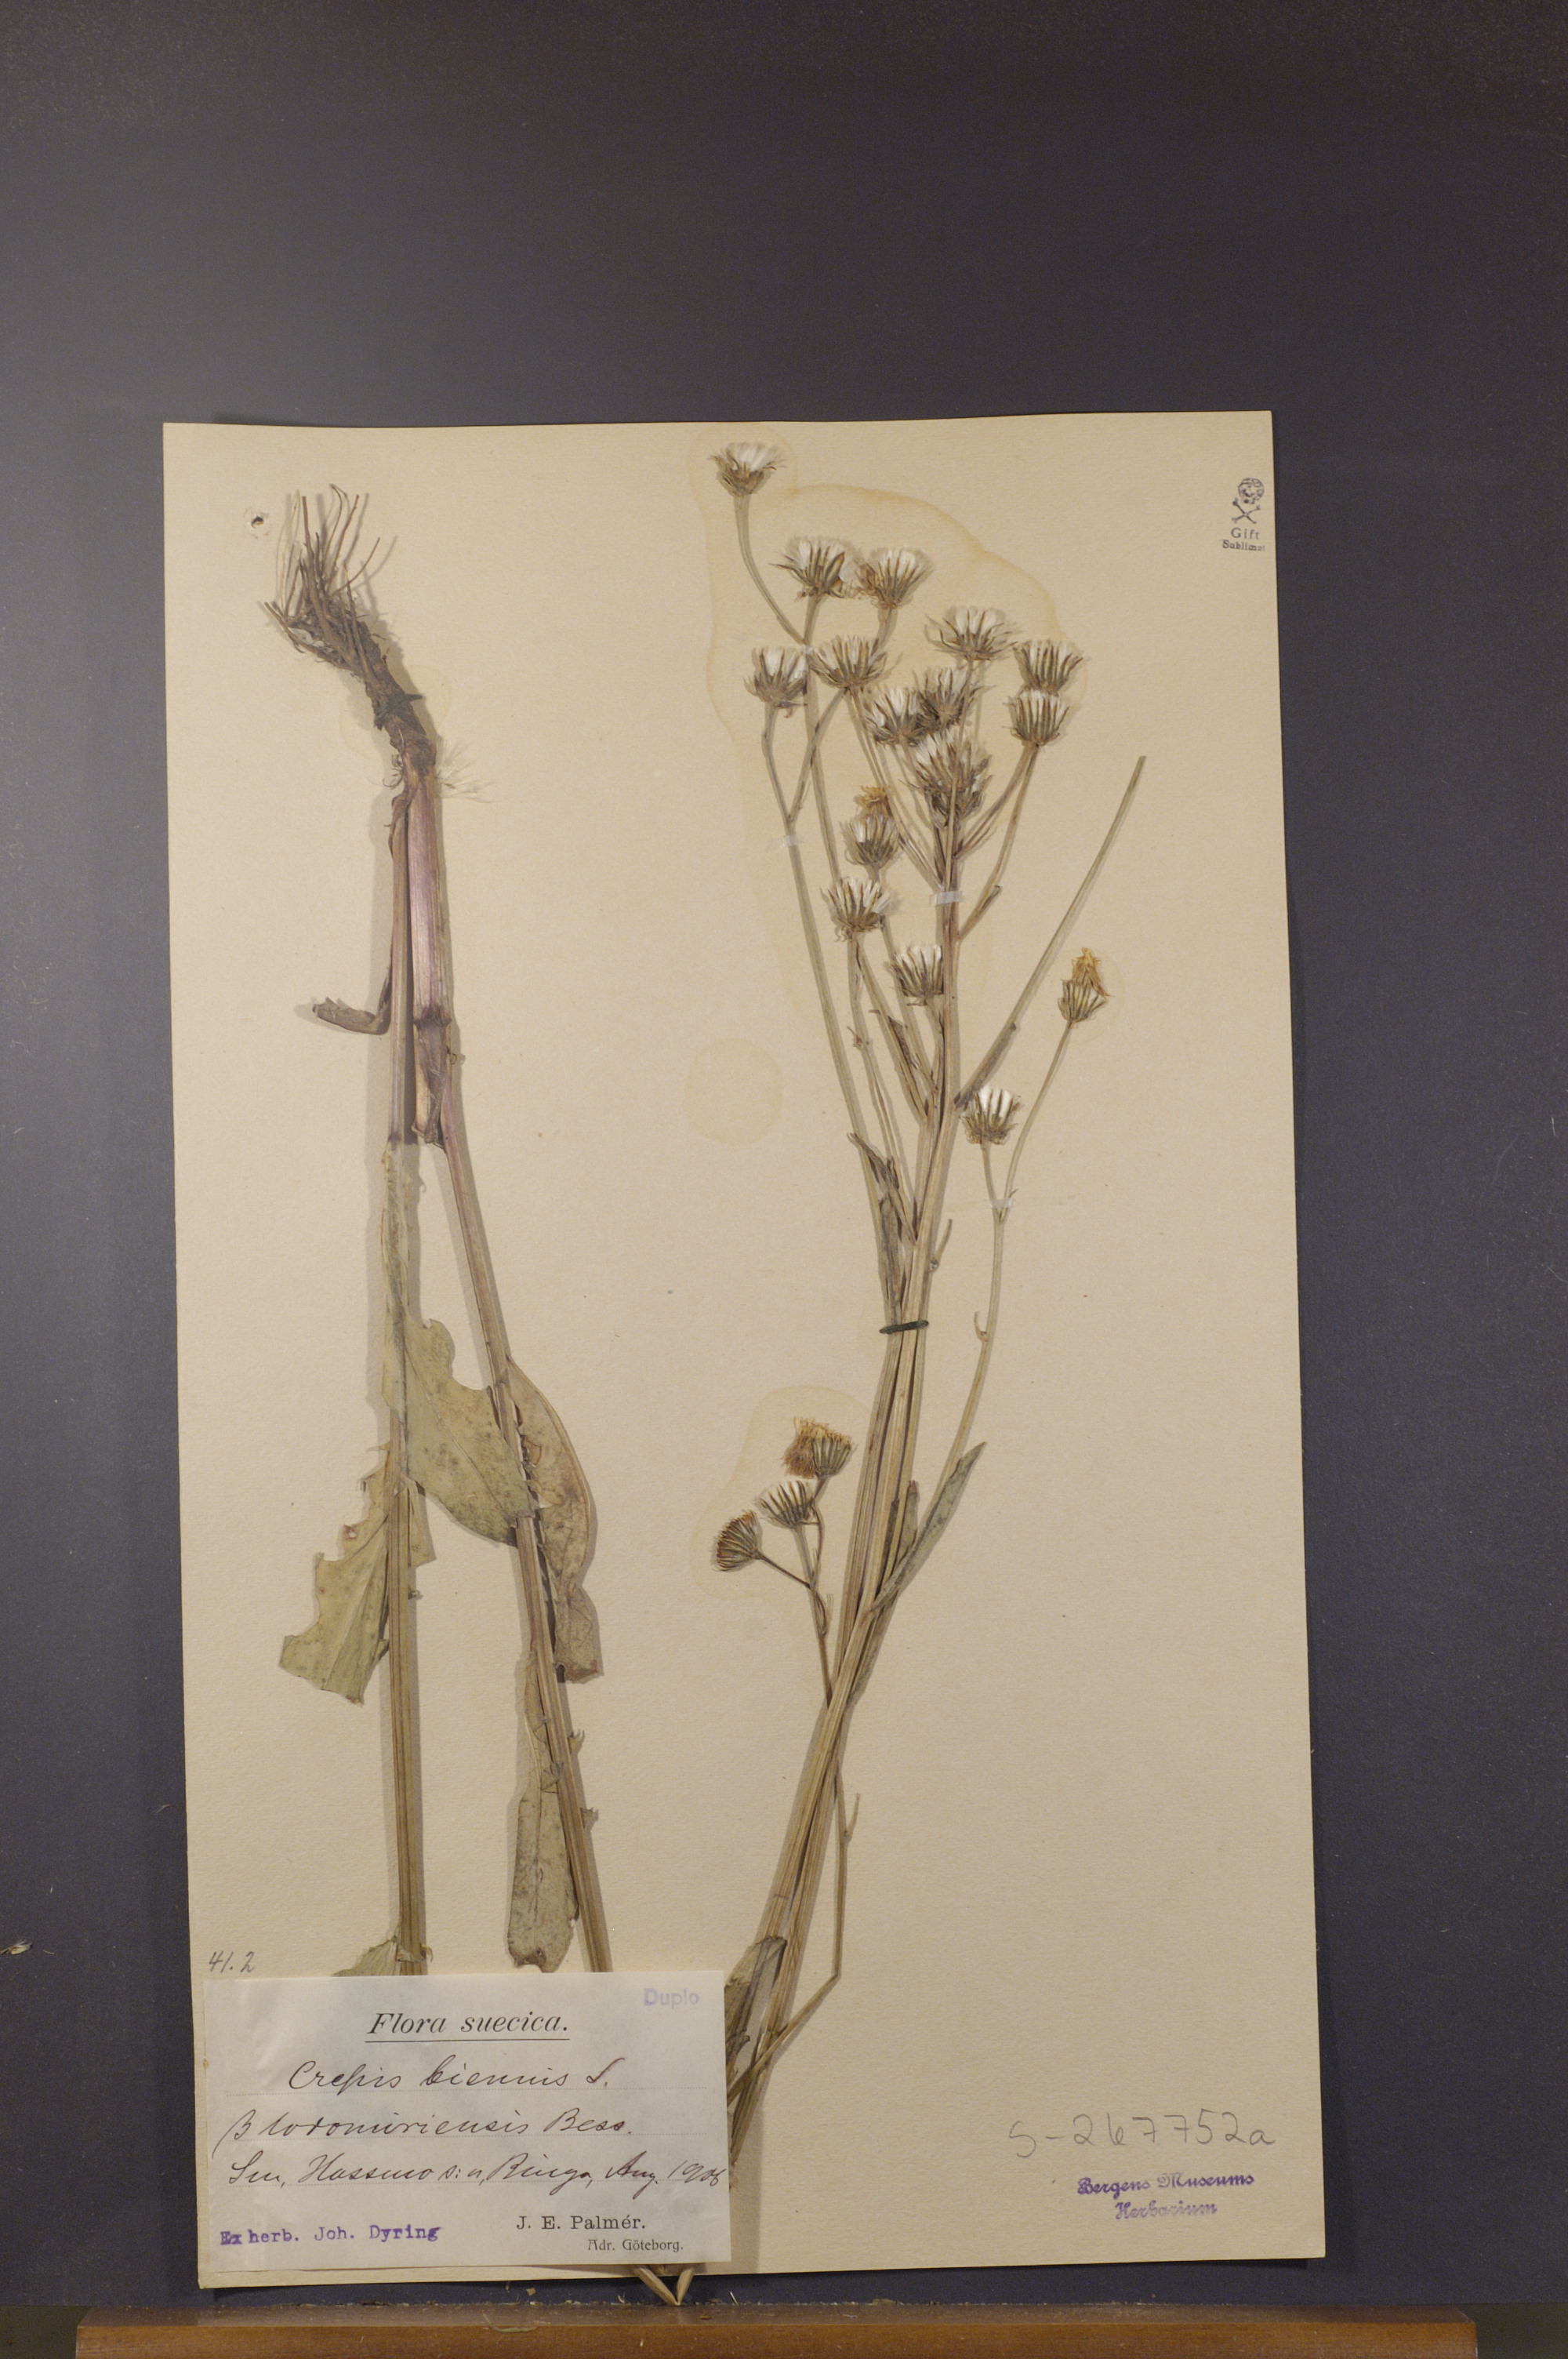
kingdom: Plantae
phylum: Tracheophyta
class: Magnoliopsida
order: Asterales
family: Asteraceae
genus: Crepis
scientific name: Crepis biennis
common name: Rough hawk's-beard
